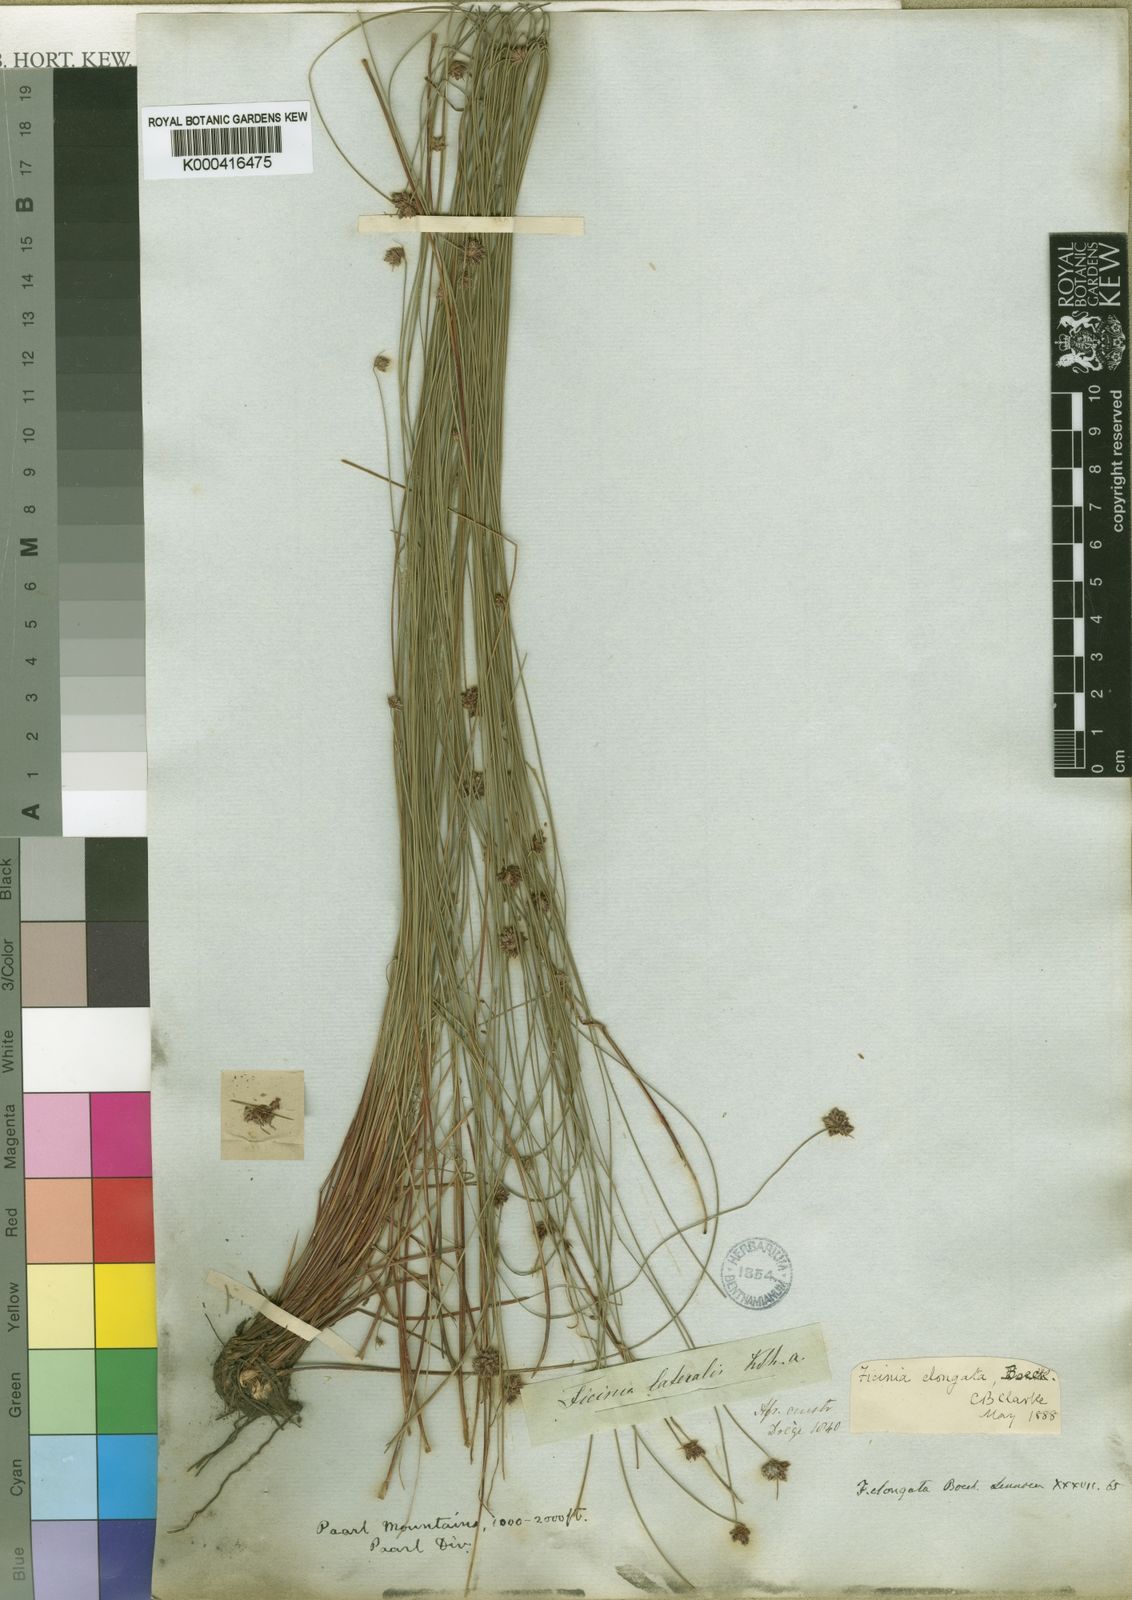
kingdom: Plantae
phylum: Tracheophyta
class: Liliopsida
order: Poales
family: Cyperaceae
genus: Ficinia
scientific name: Ficinia acuminata
